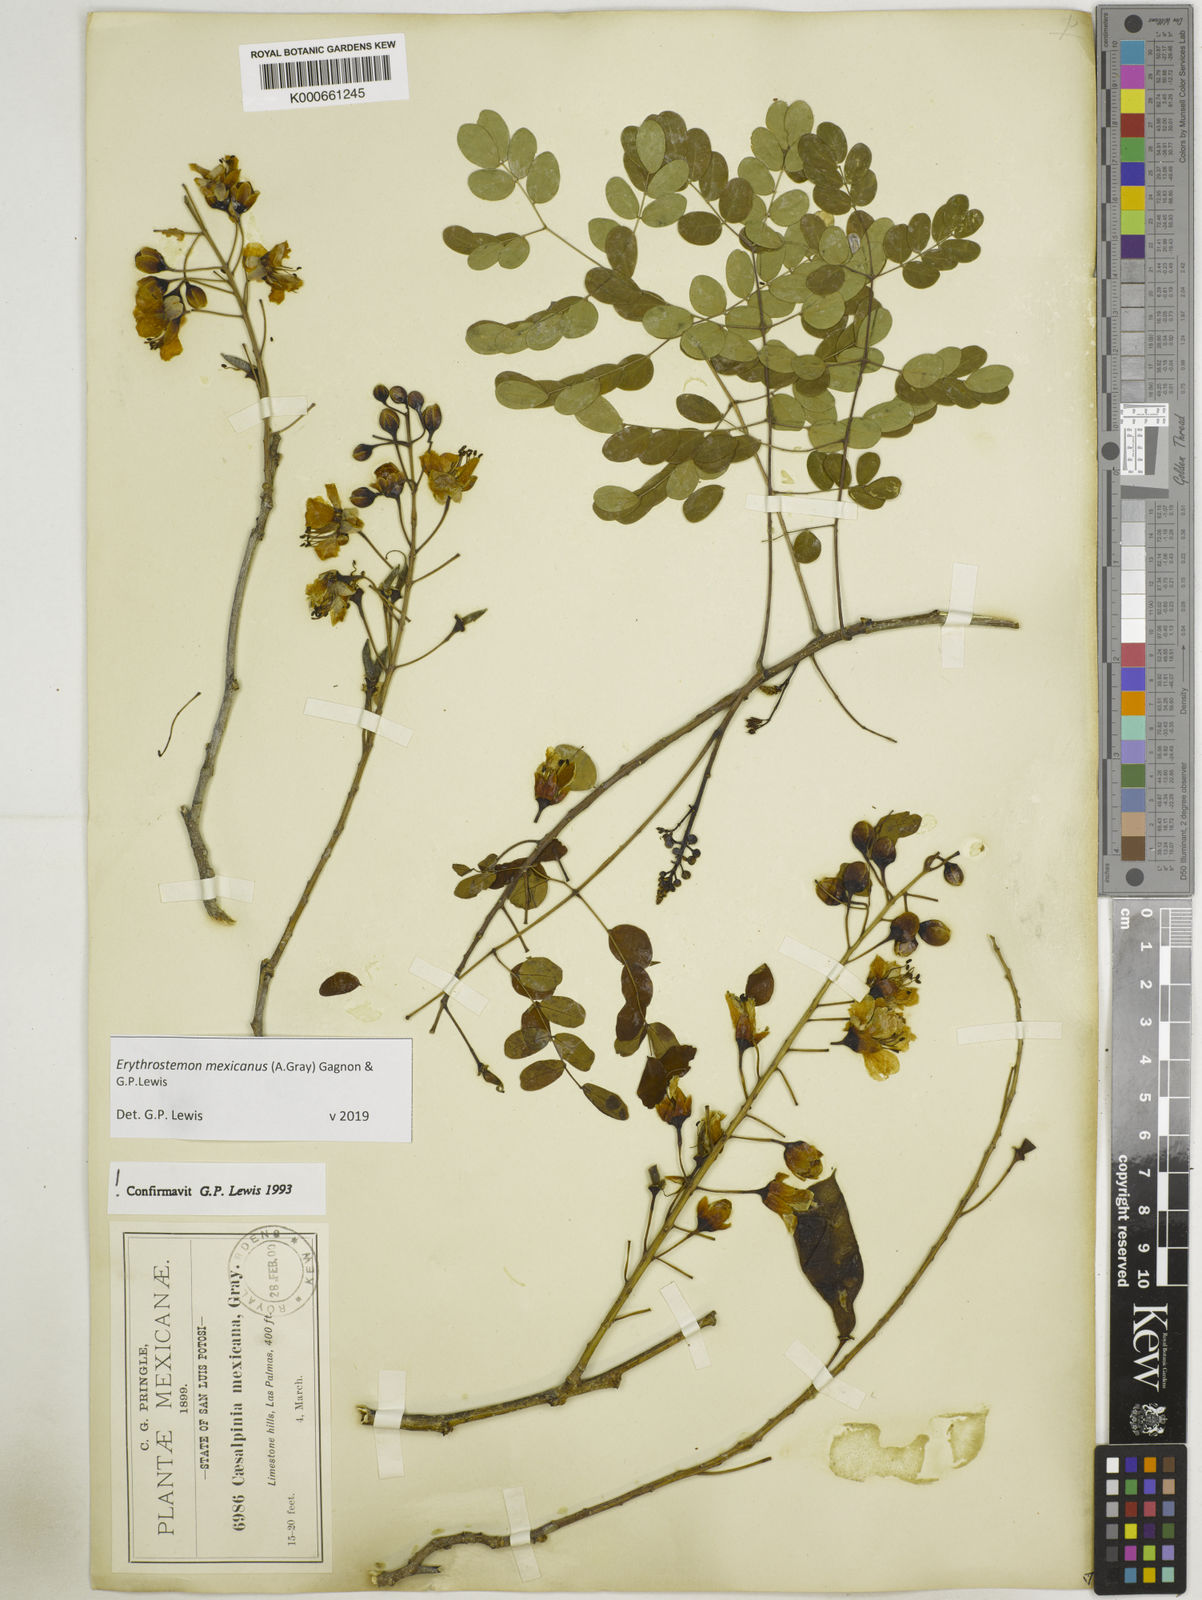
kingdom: Plantae
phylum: Tracheophyta
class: Magnoliopsida
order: Fabales
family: Fabaceae
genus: Erythrostemon
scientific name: Erythrostemon mexicanus
